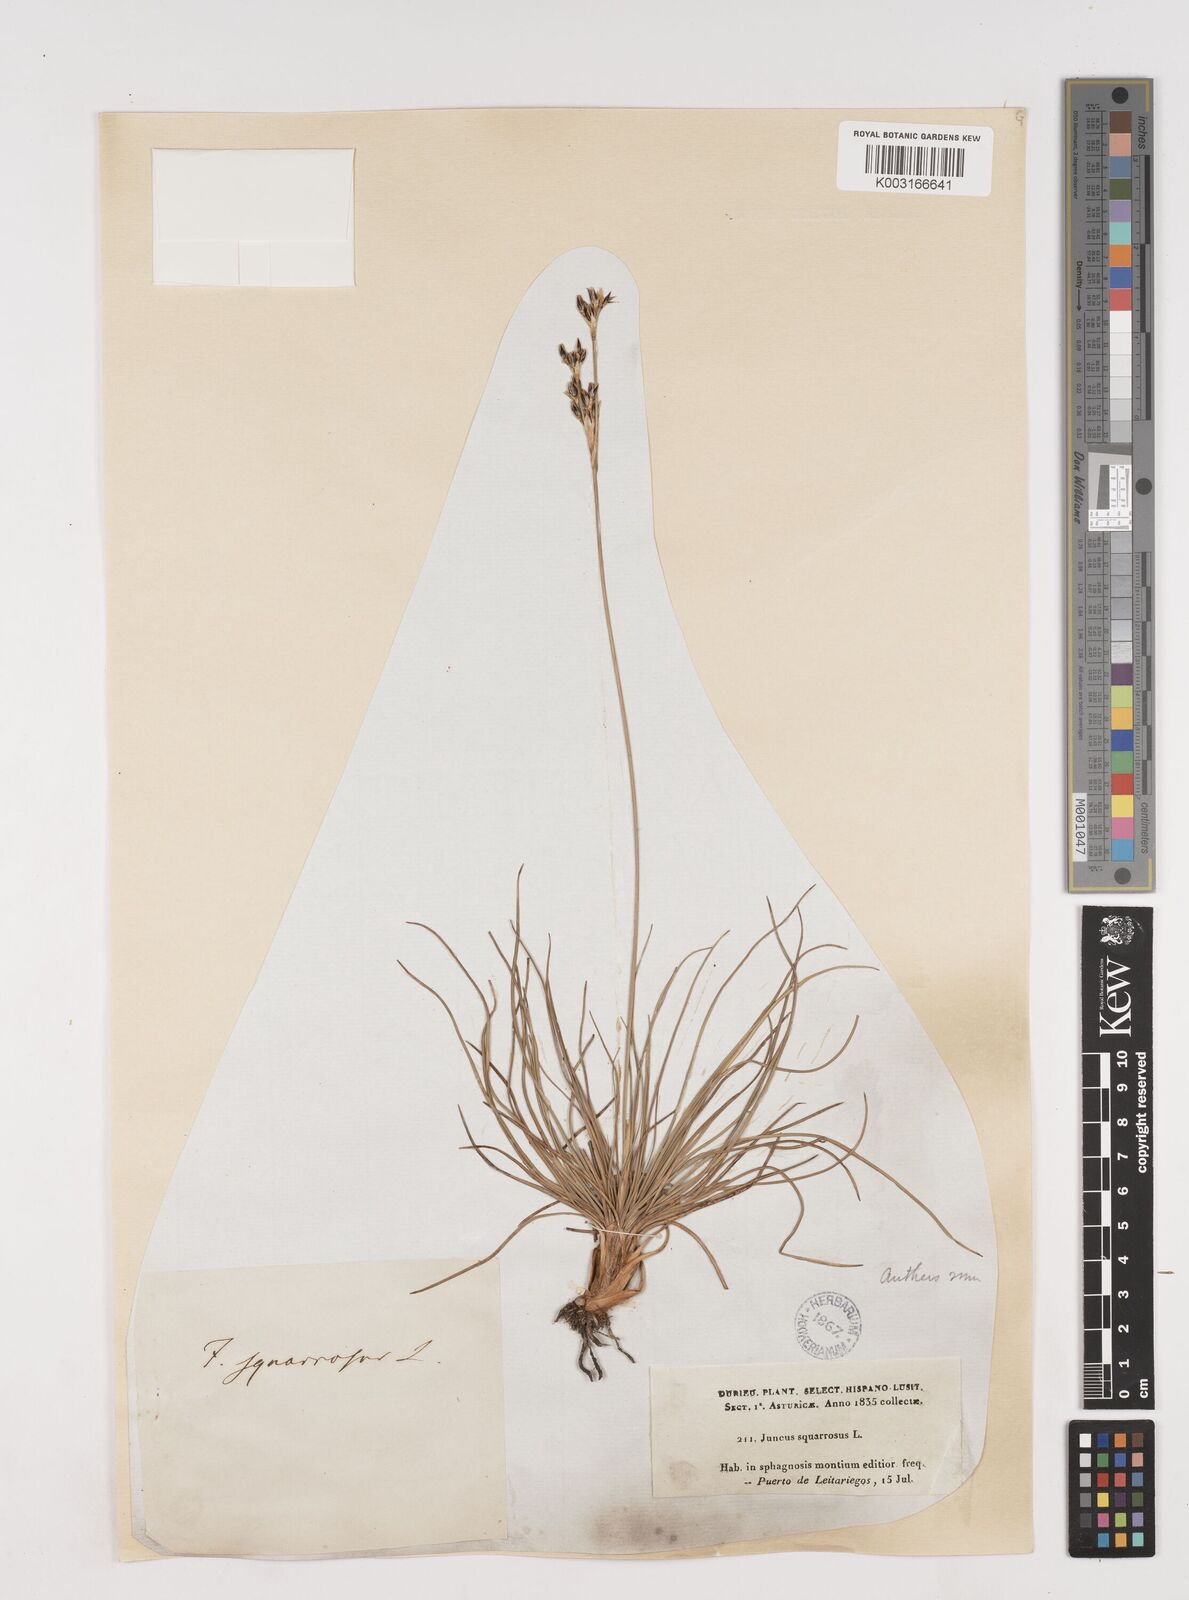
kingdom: Plantae
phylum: Tracheophyta
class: Liliopsida
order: Poales
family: Juncaceae
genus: Juncus
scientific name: Juncus squarrosus
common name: Heath rush
